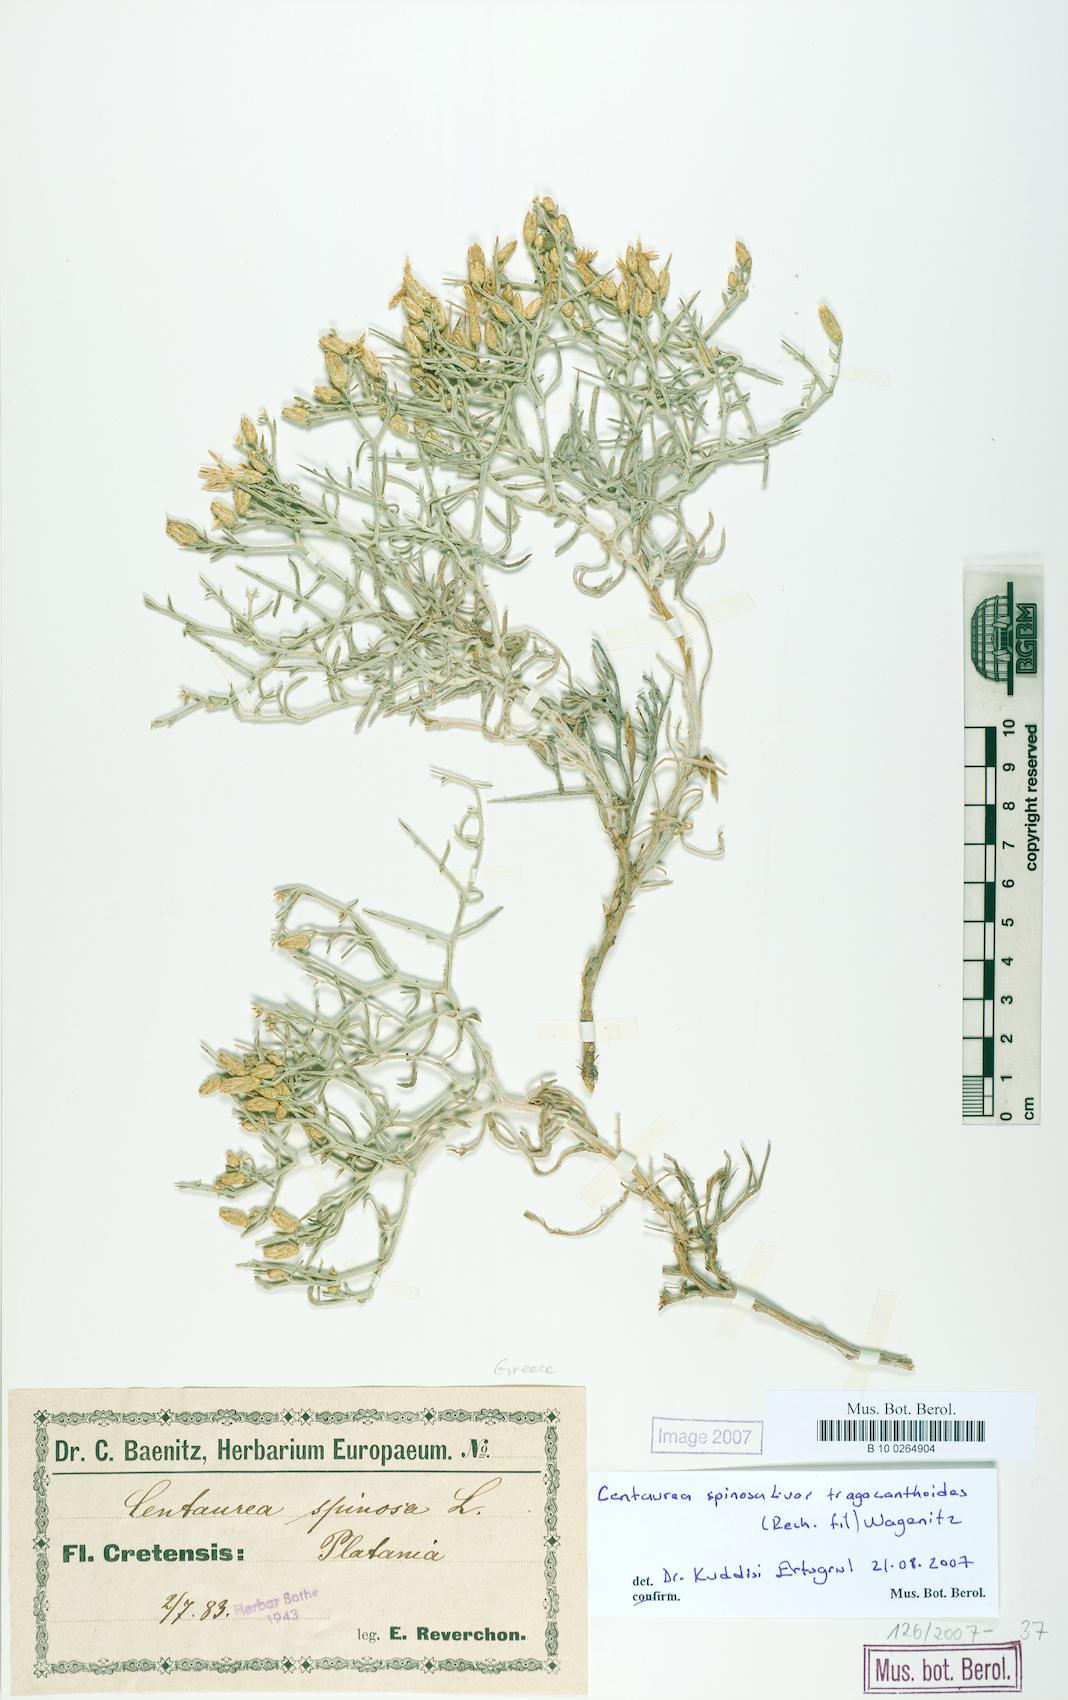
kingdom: Plantae
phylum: Tracheophyta
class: Magnoliopsida
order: Asterales
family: Asteraceae
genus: Centaurea
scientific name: Centaurea
